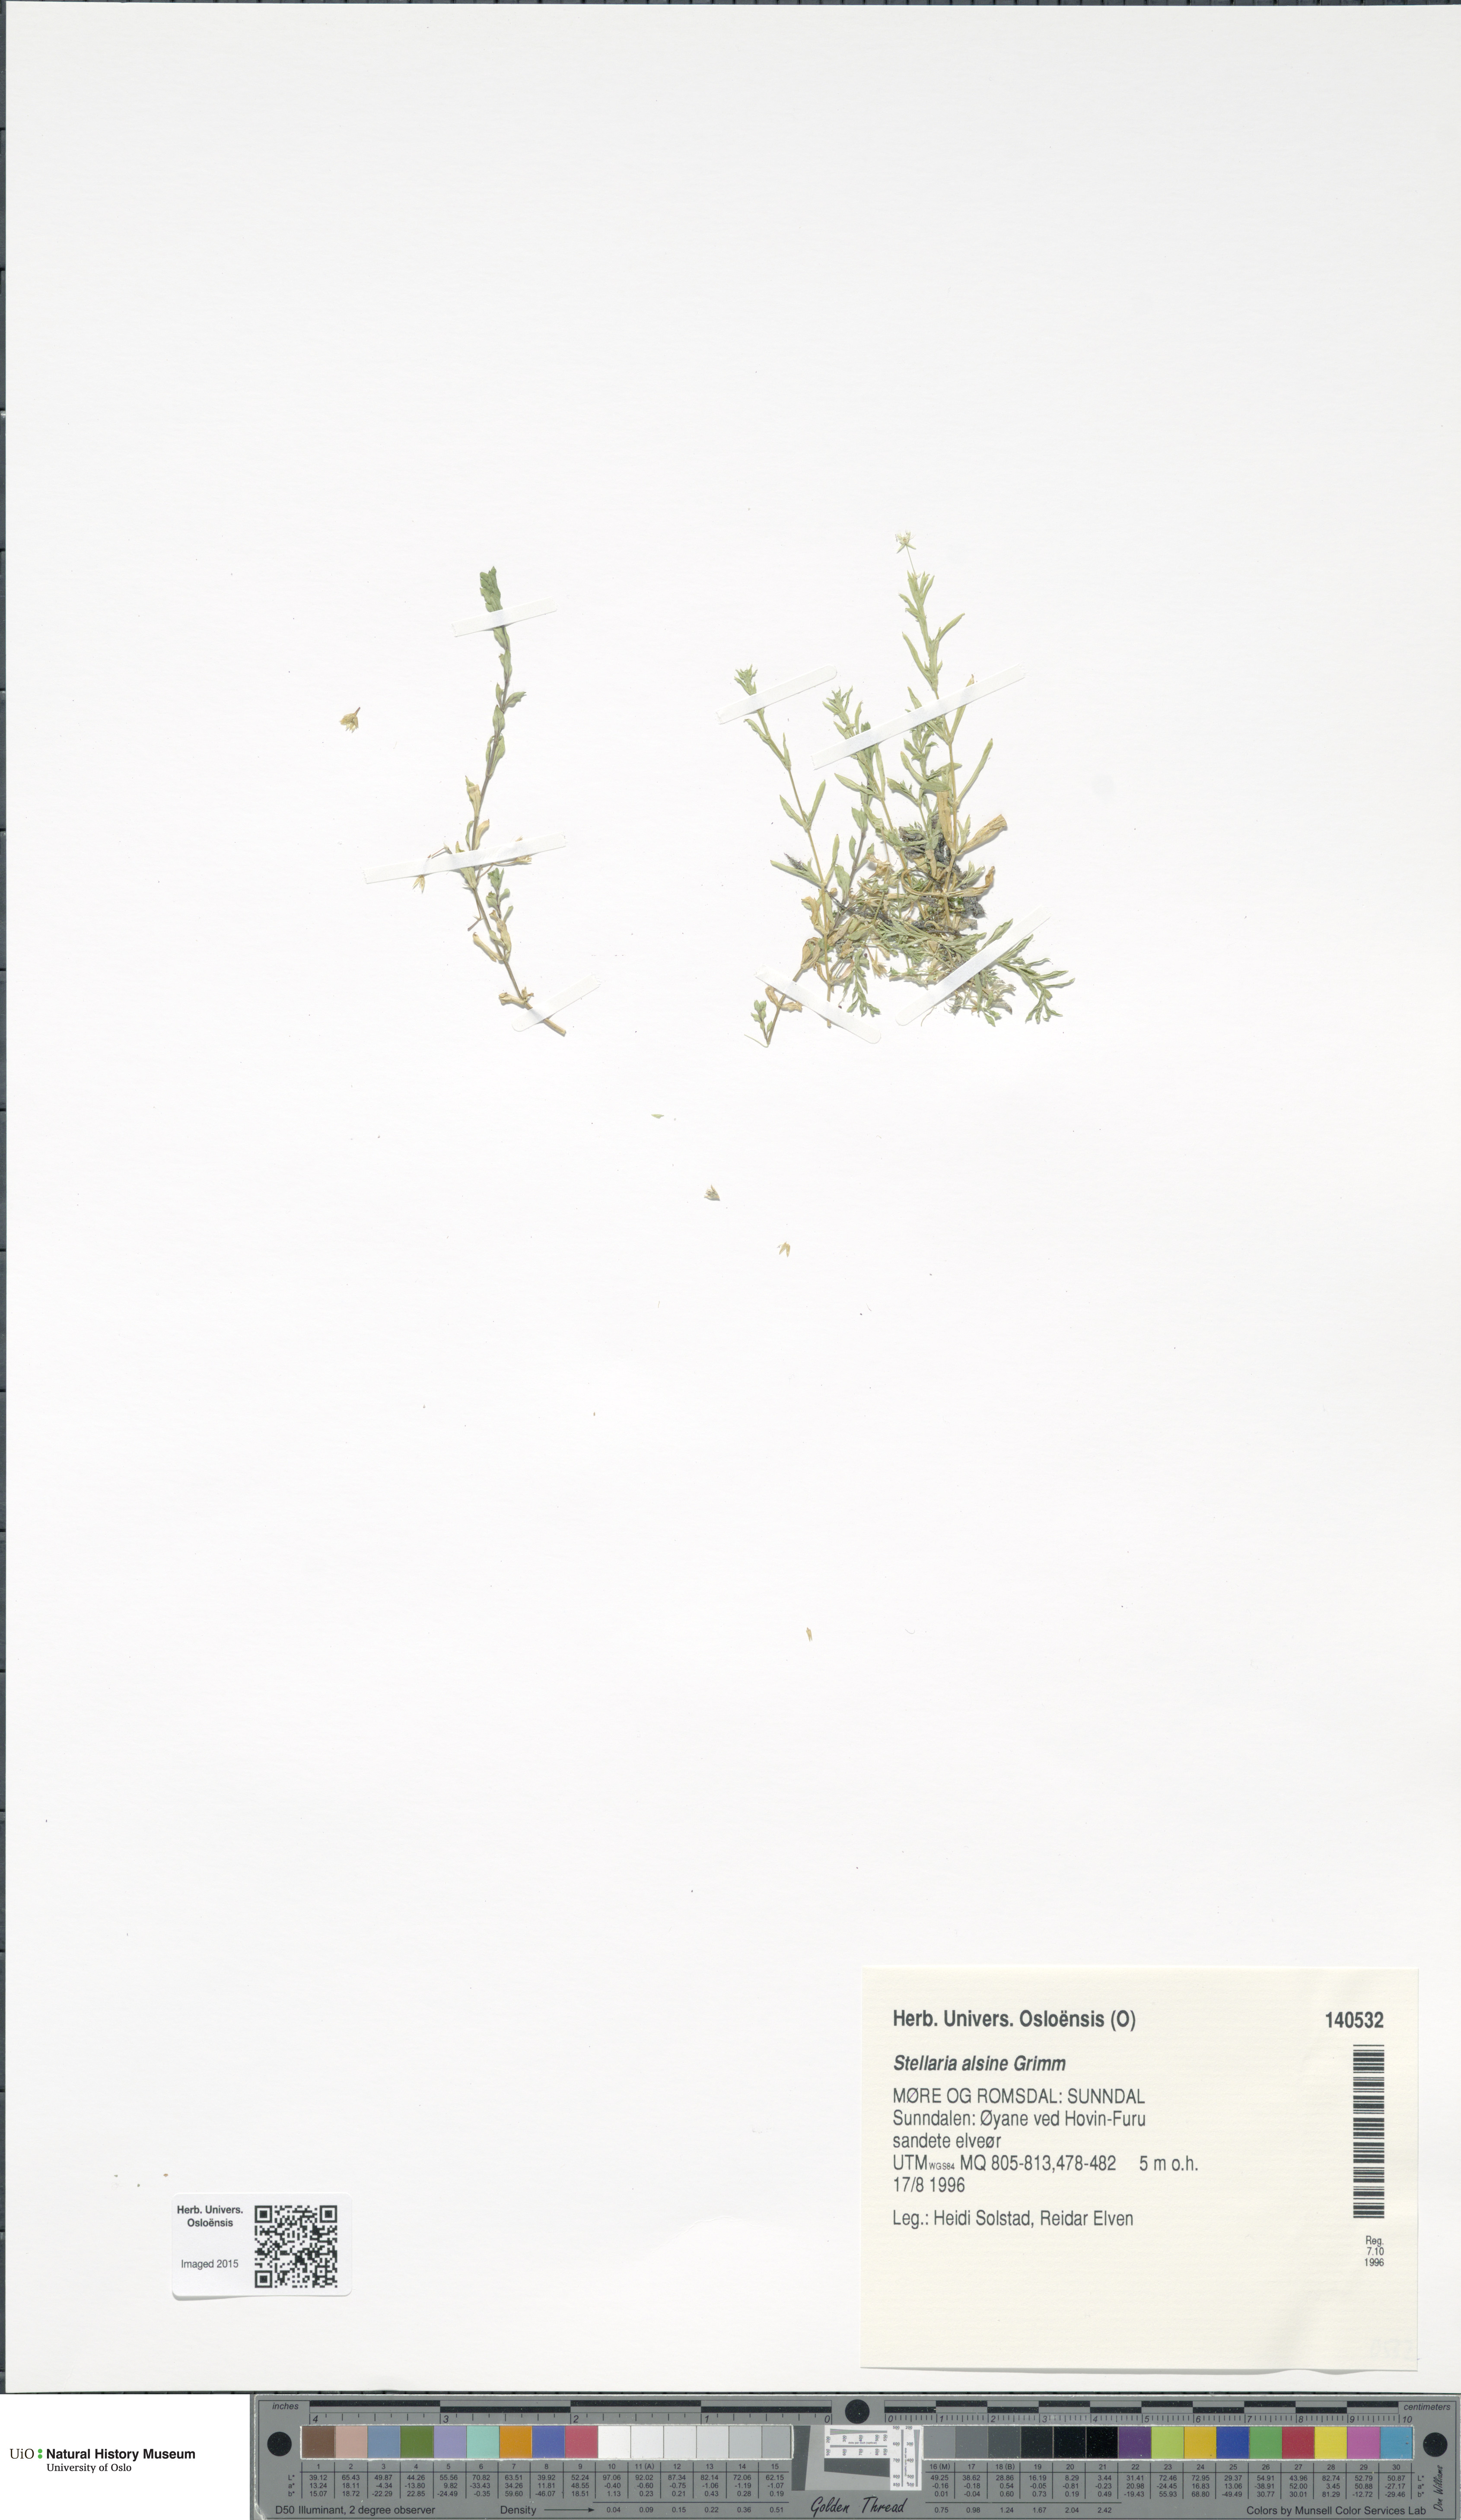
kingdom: Plantae
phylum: Tracheophyta
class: Magnoliopsida
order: Caryophyllales
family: Caryophyllaceae
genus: Stellaria
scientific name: Stellaria alsine
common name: Bog stitchwort
